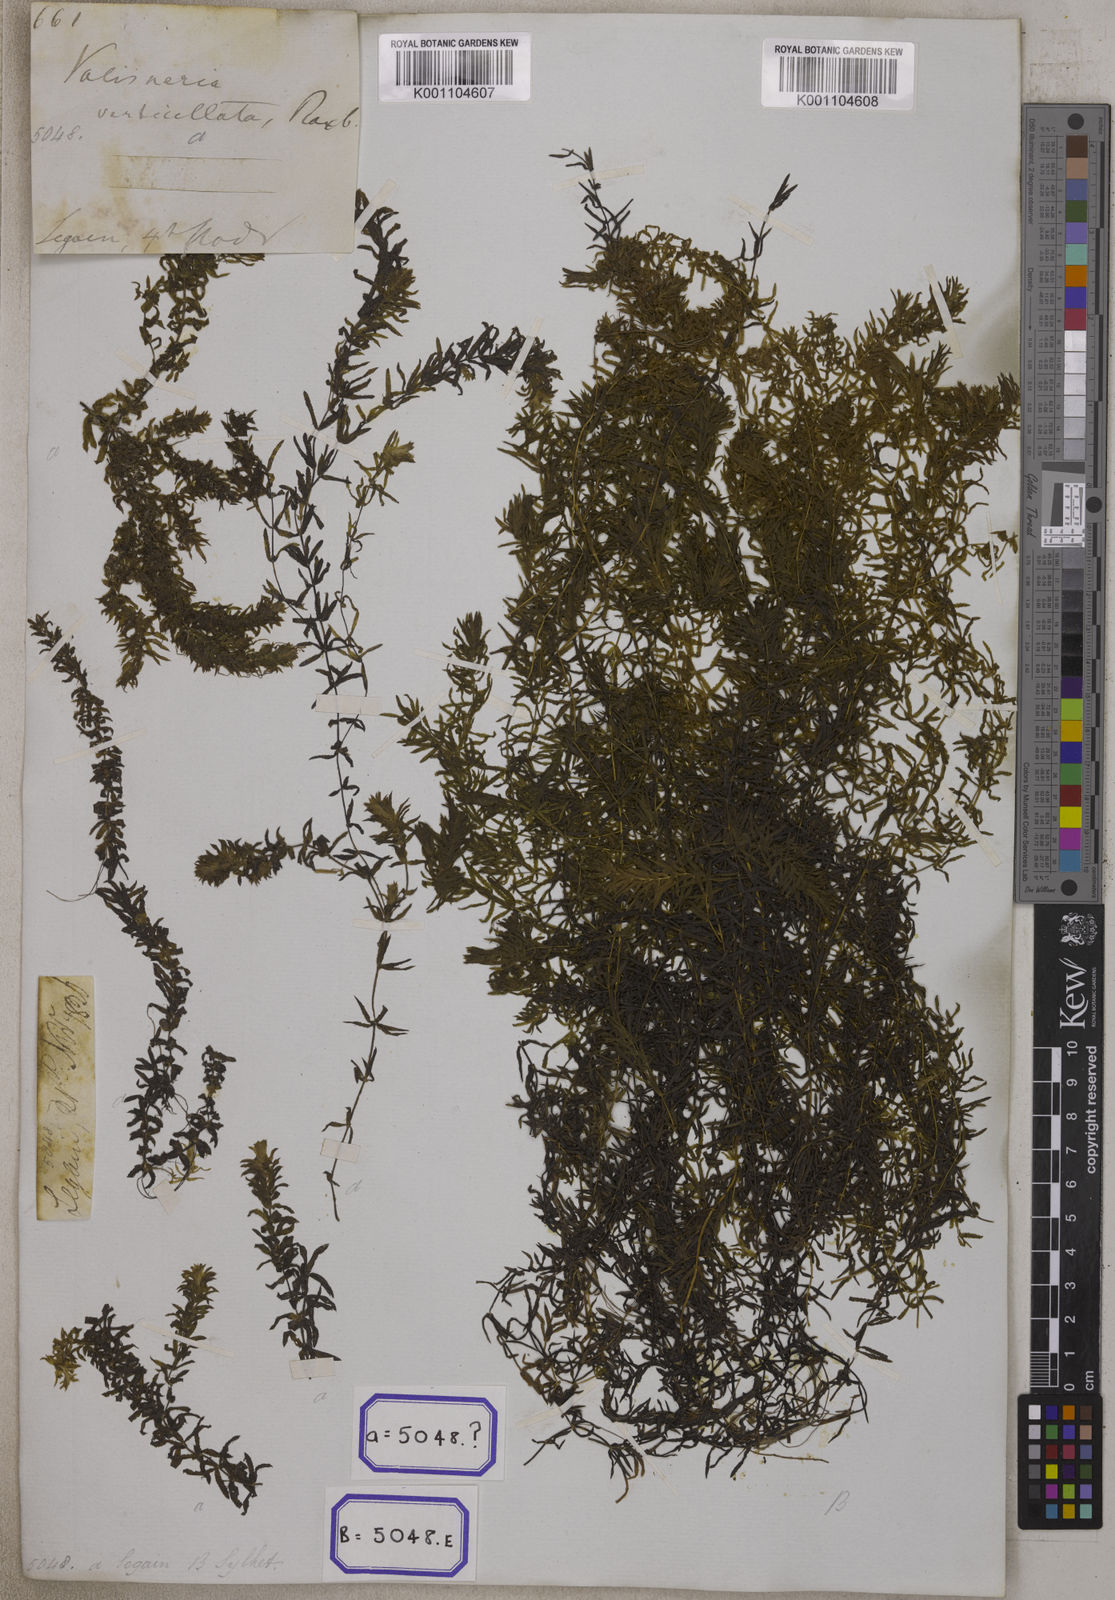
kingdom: Plantae
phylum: Tracheophyta
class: Magnoliopsida
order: Saxifragales
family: Haloragaceae
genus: Serpicula
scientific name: Serpicula
